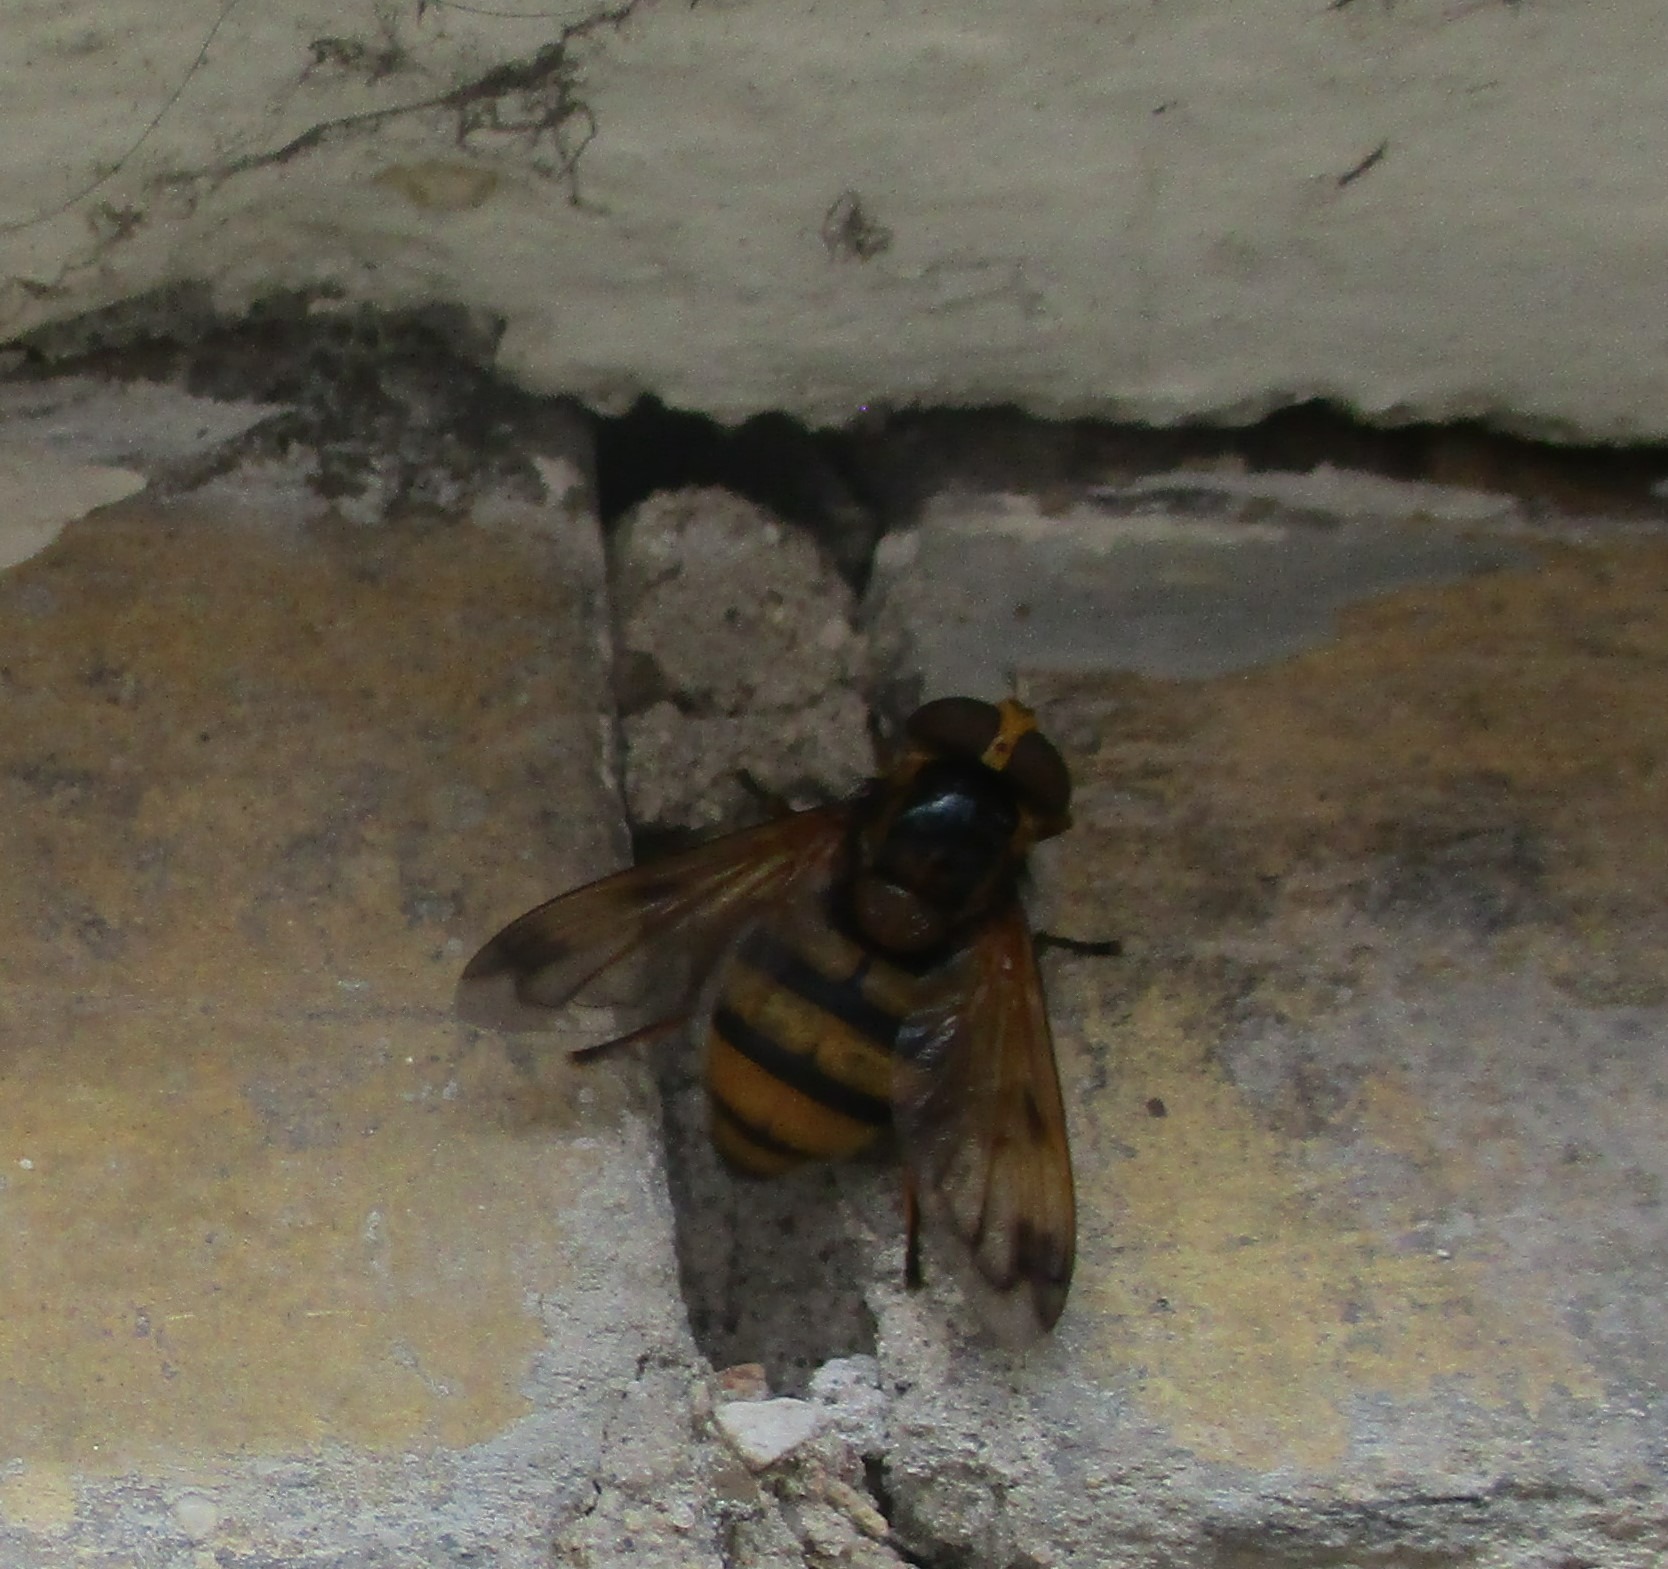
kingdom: Animalia
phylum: Arthropoda
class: Insecta
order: Diptera
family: Syrphidae
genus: Volucella
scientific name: Volucella inanis
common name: Gul humlesvirreflue
